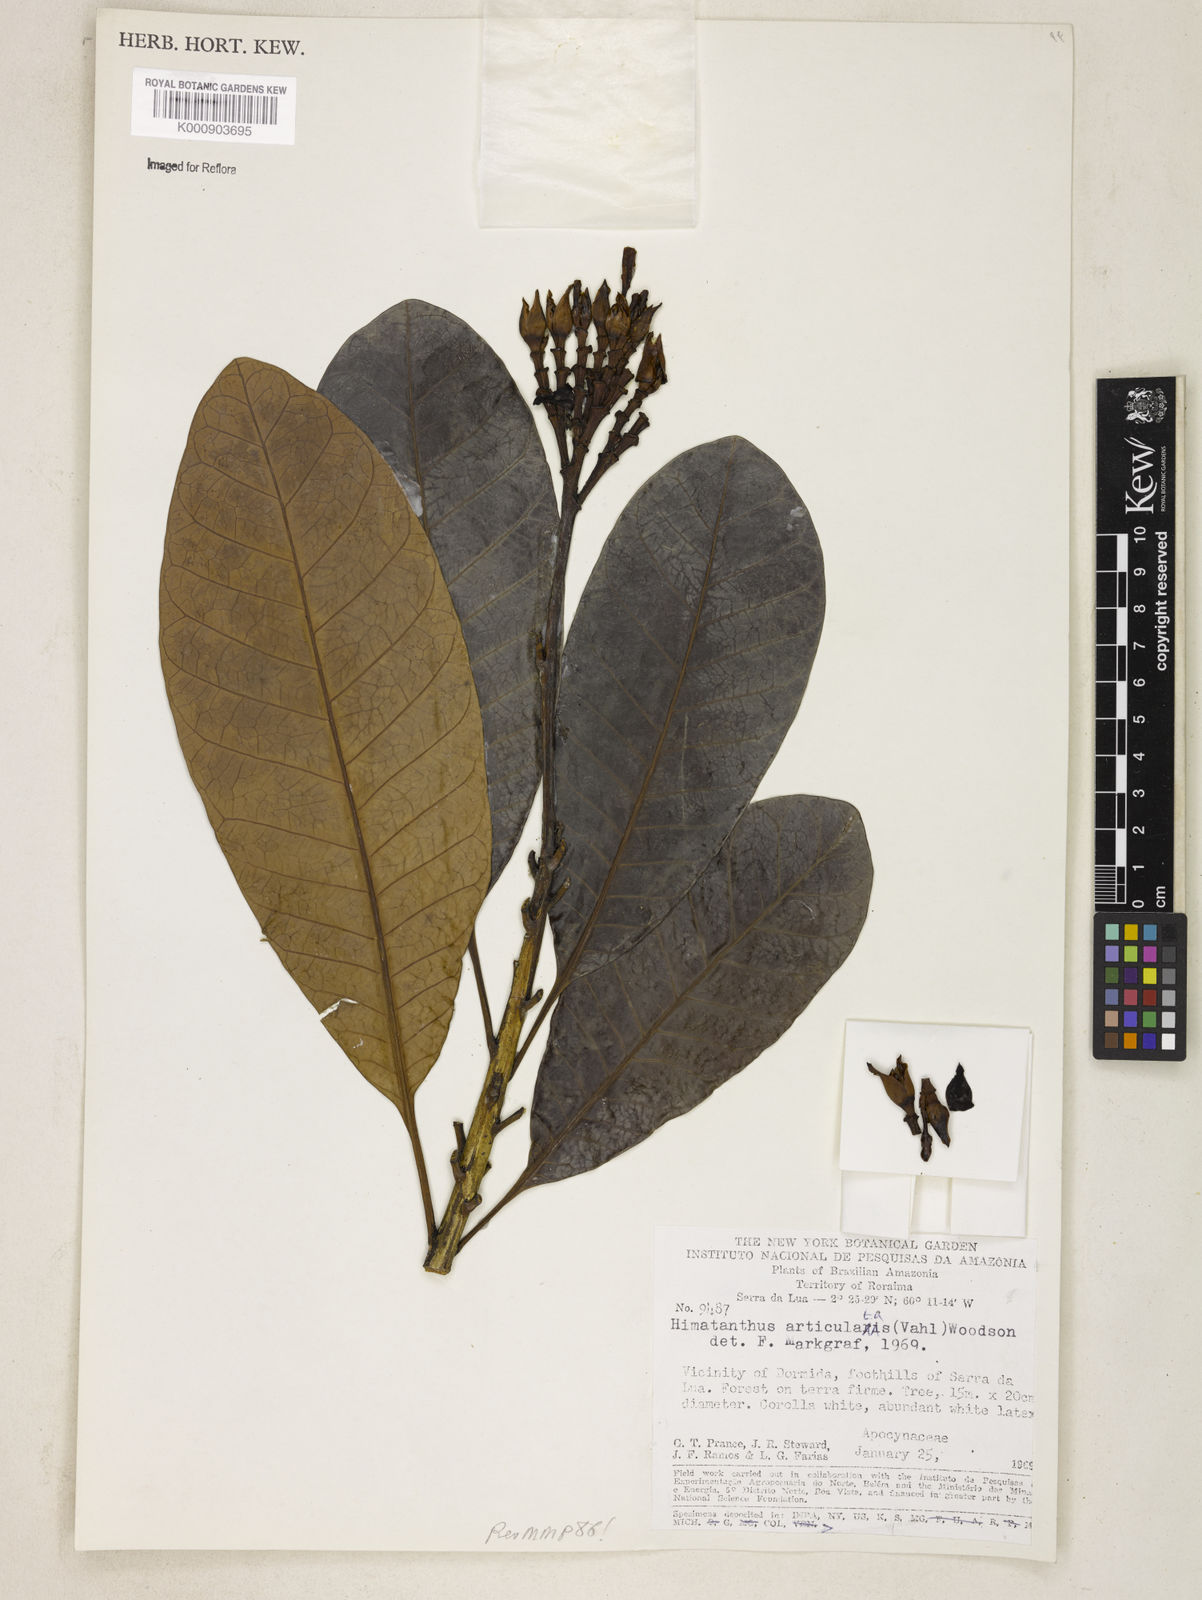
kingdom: Plantae
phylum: Tracheophyta
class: Magnoliopsida
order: Gentianales
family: Apocynaceae
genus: Himatanthus
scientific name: Himatanthus articulatus
